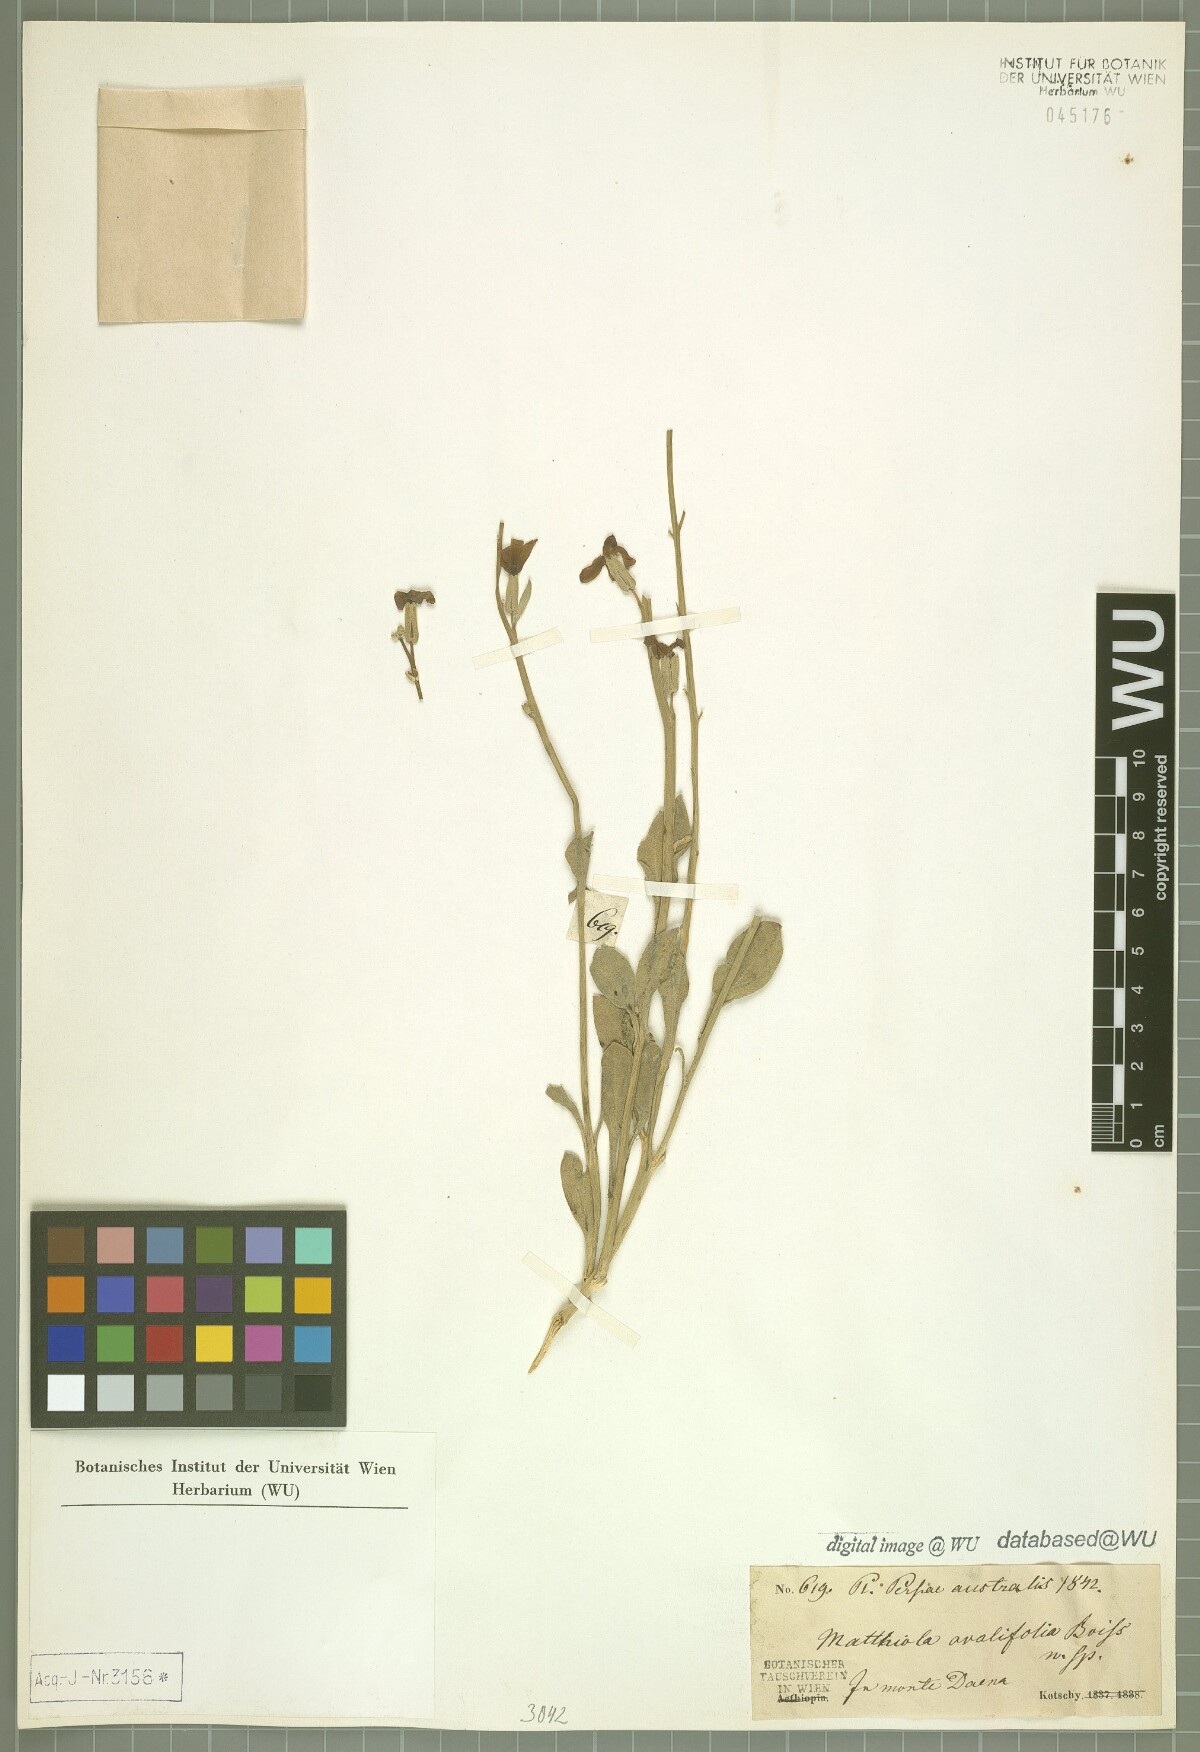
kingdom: Plantae
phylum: Tracheophyta
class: Magnoliopsida
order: Brassicales
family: Brassicaceae
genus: Matthiola
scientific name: Matthiola ovatifolia
